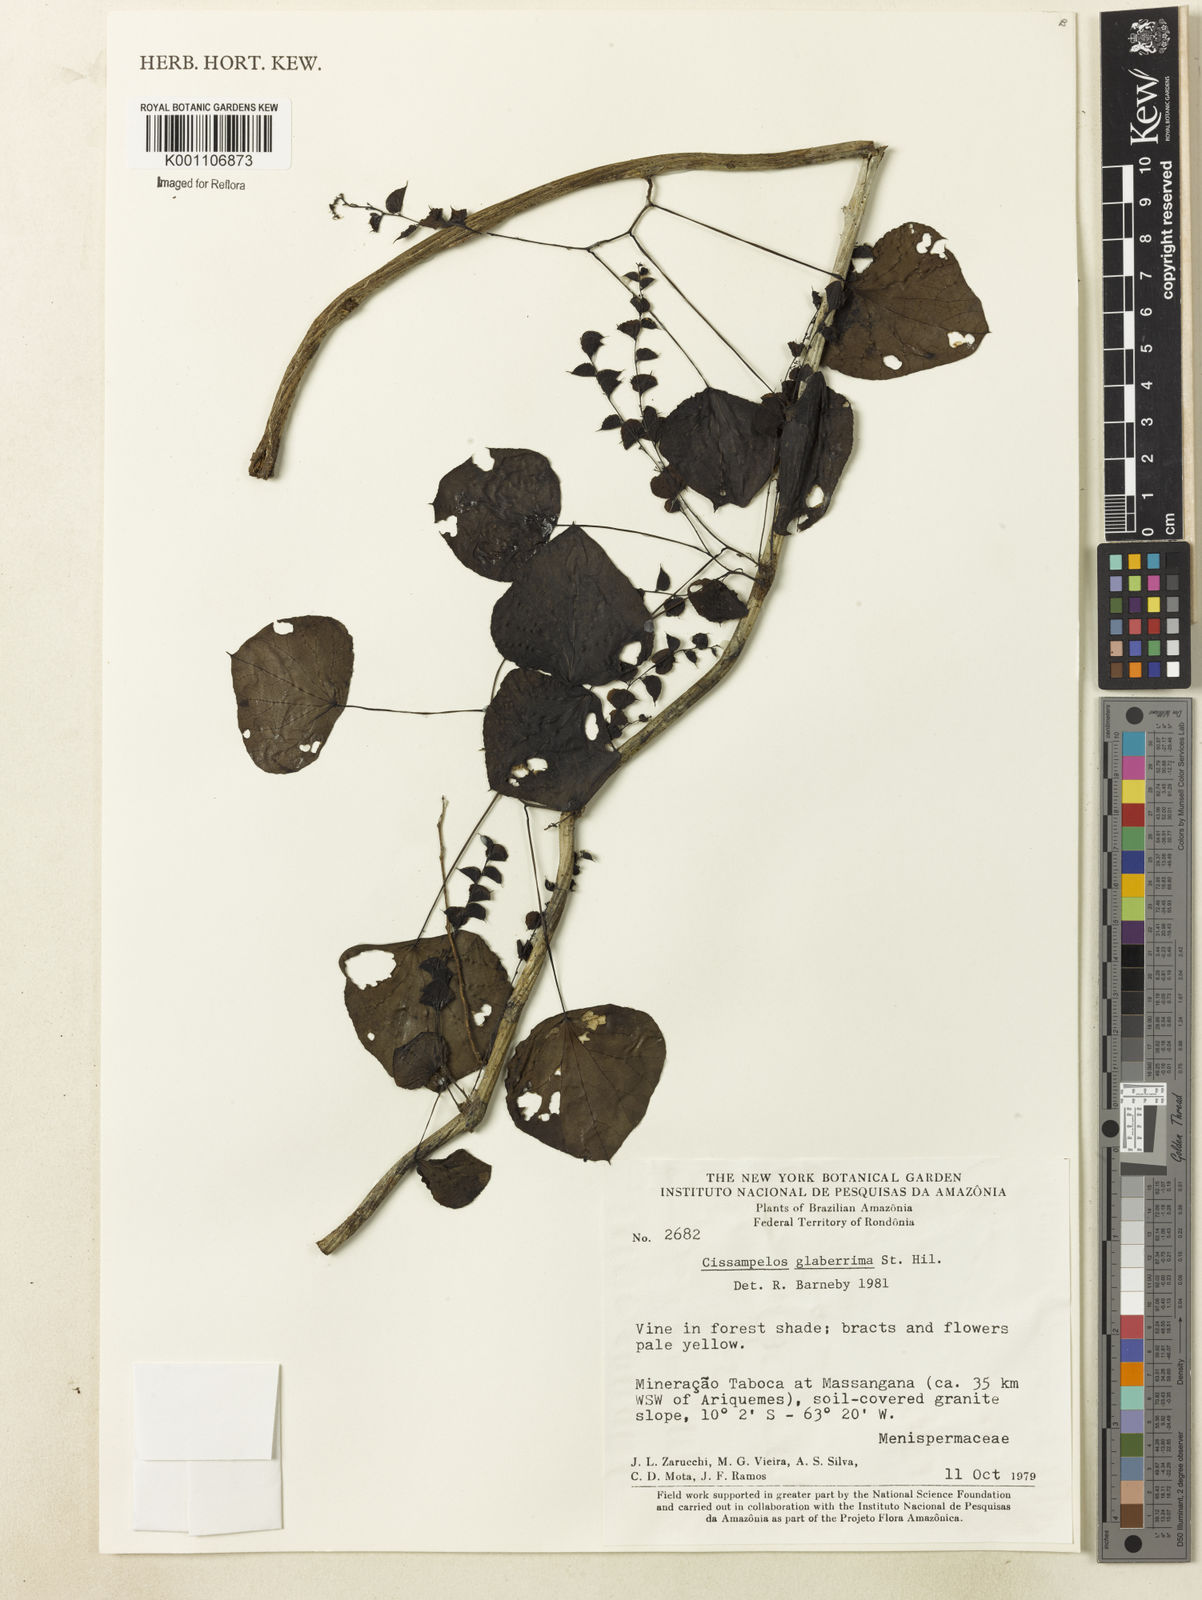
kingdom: Plantae
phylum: Tracheophyta
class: Magnoliopsida
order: Ranunculales
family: Menispermaceae
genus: Cissampelos
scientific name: Cissampelos glaberrima
